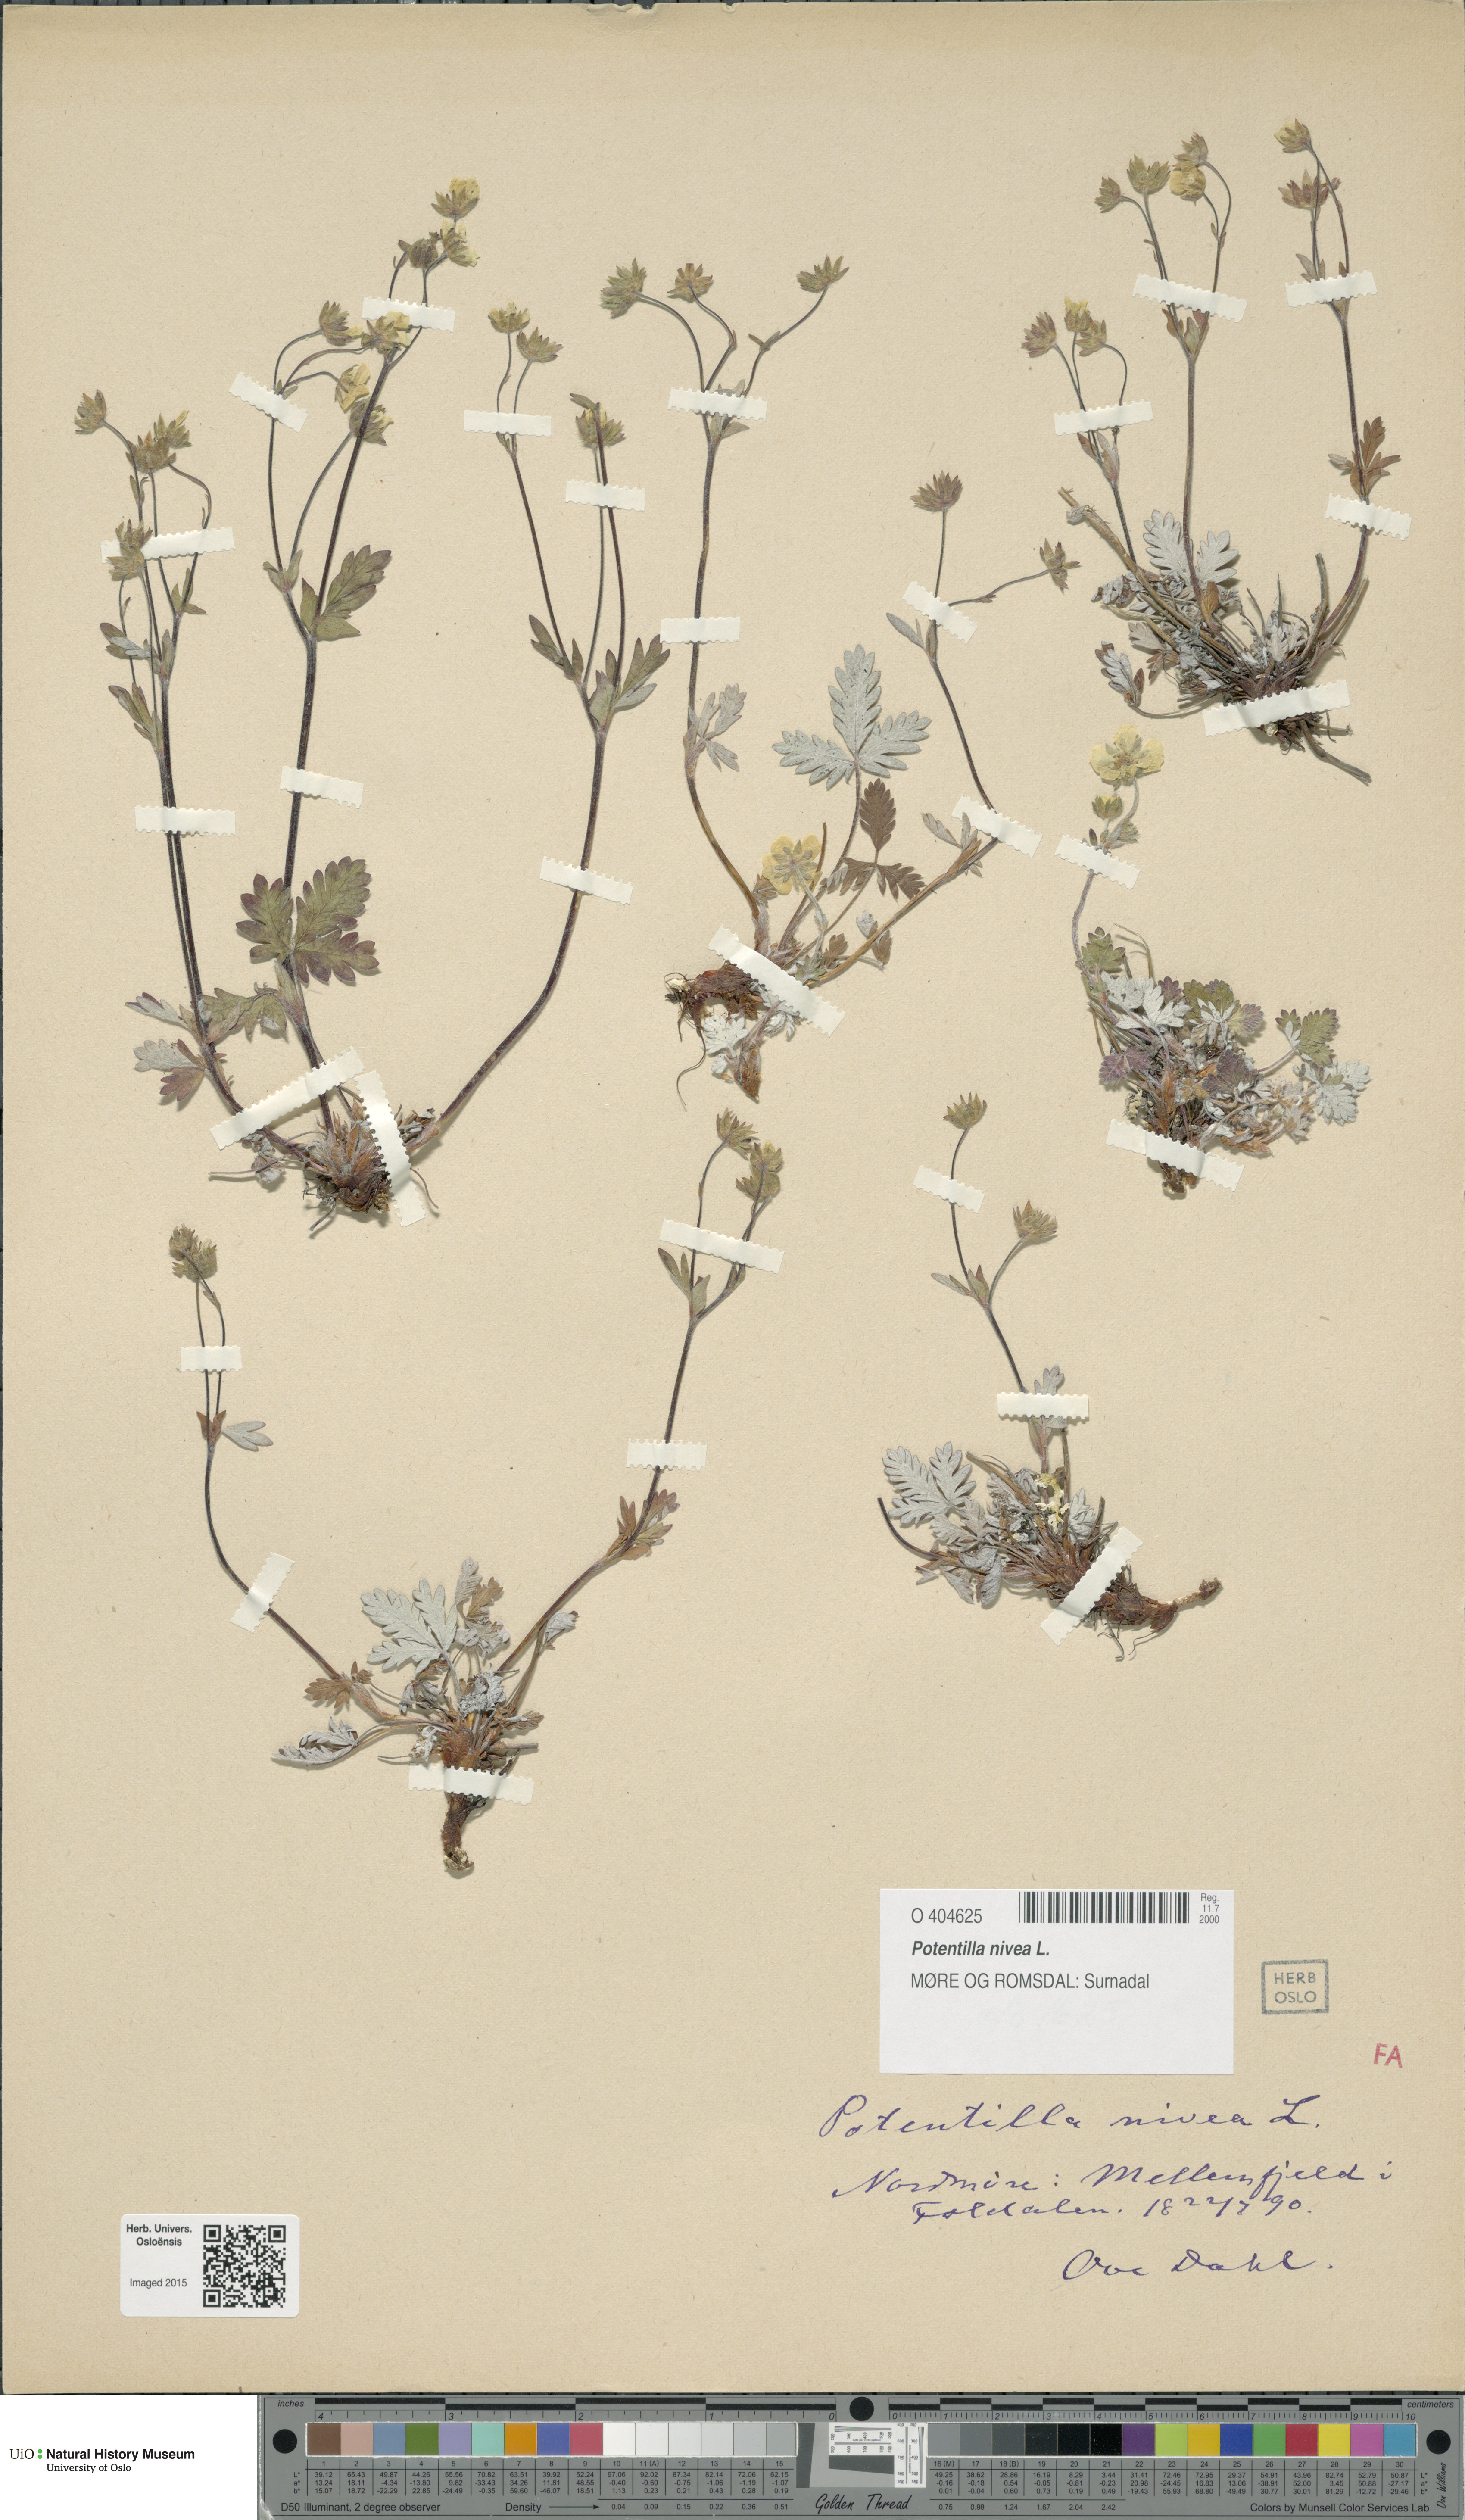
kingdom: Plantae
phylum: Tracheophyta
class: Magnoliopsida
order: Rosales
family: Rosaceae
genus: Potentilla
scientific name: Potentilla arenosa
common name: Bluff cinquefoil
